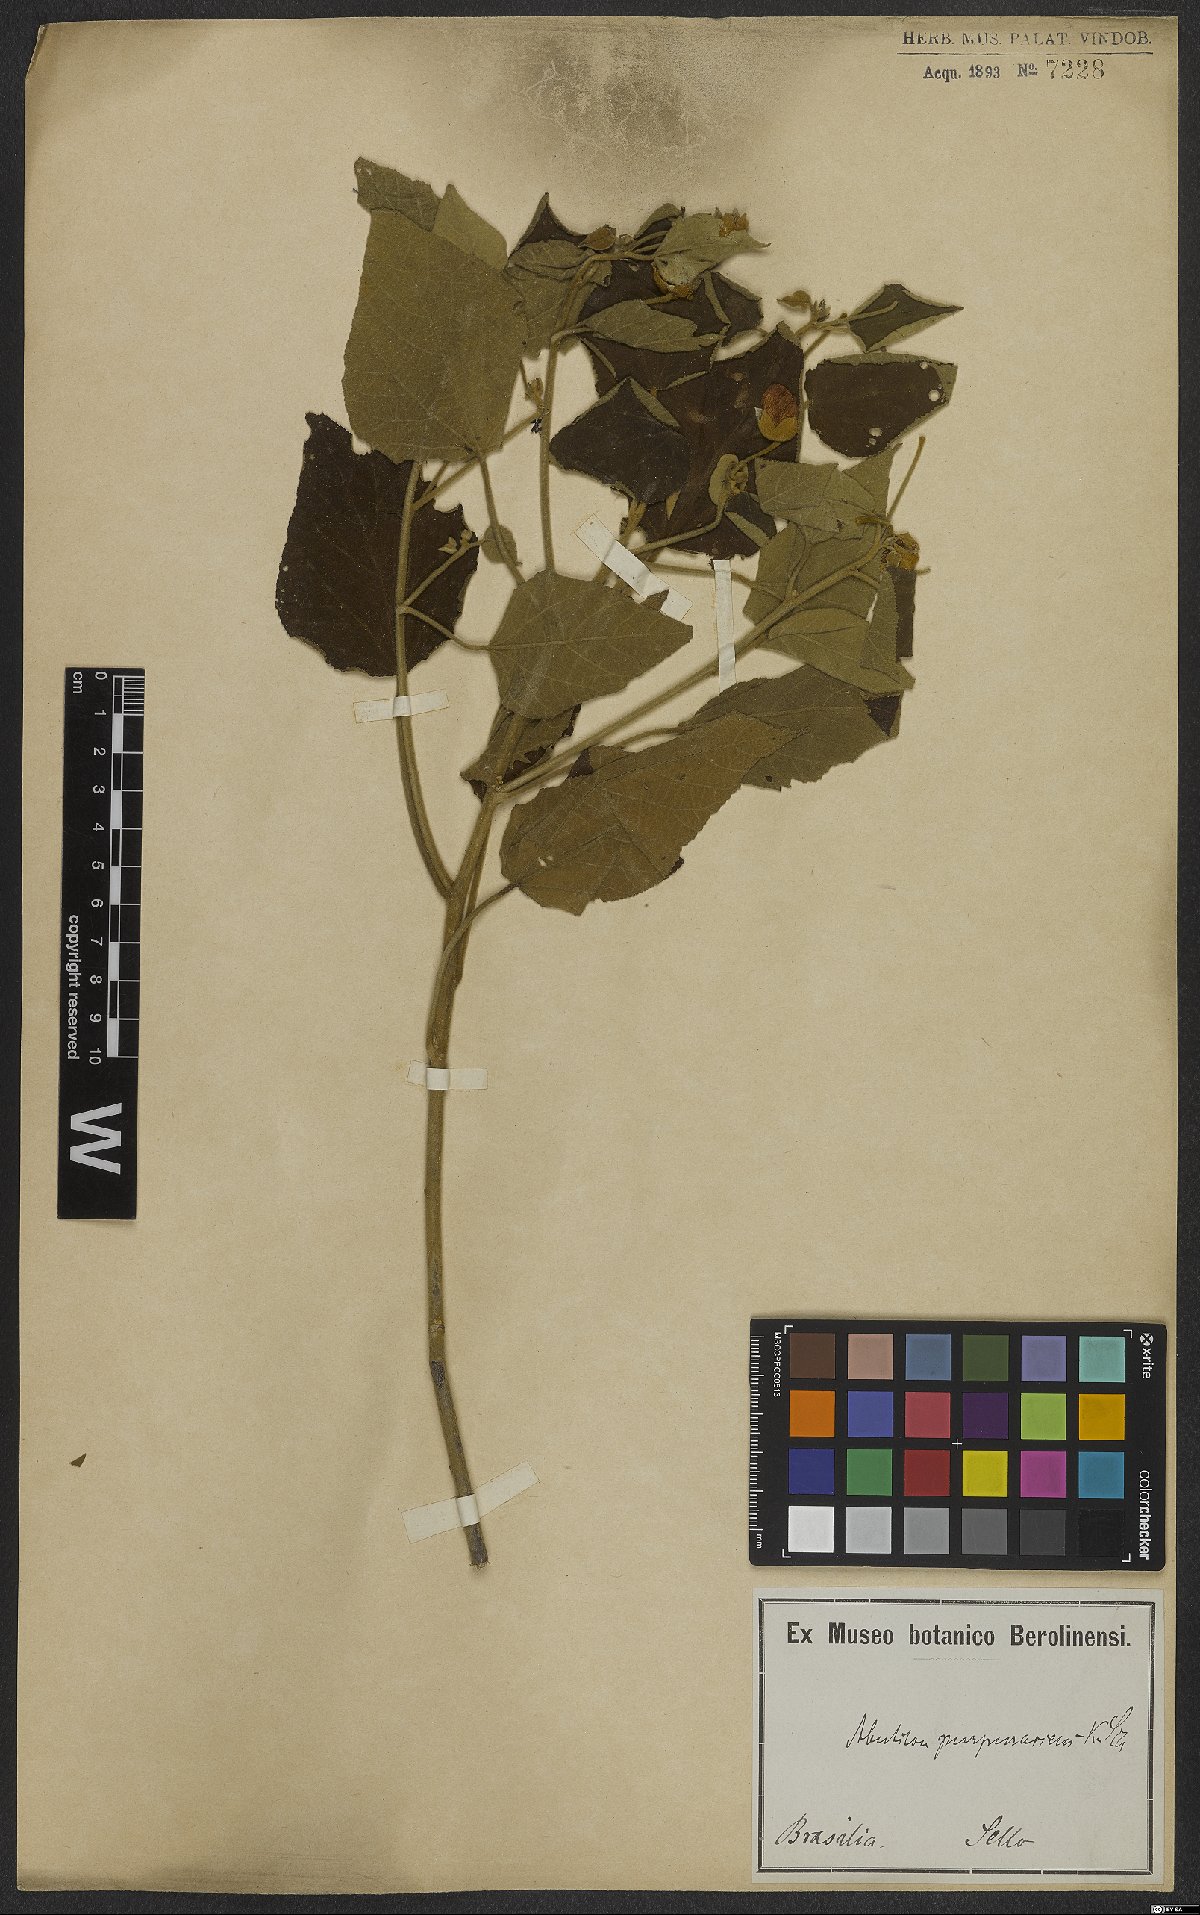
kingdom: Plantae
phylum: Tracheophyta
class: Magnoliopsida
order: Malvales
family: Malvaceae
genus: Bakeridesia
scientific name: Bakeridesia esculenta
